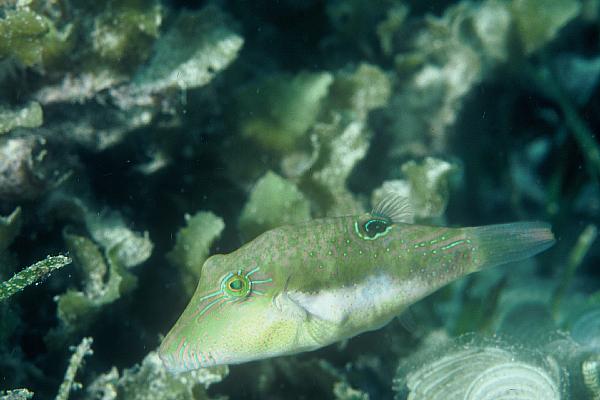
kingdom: Animalia
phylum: Chordata
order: Tetraodontiformes
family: Tetraodontidae
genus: Canthigaster
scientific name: Canthigaster bennetti
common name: Bennett's pufferfish
